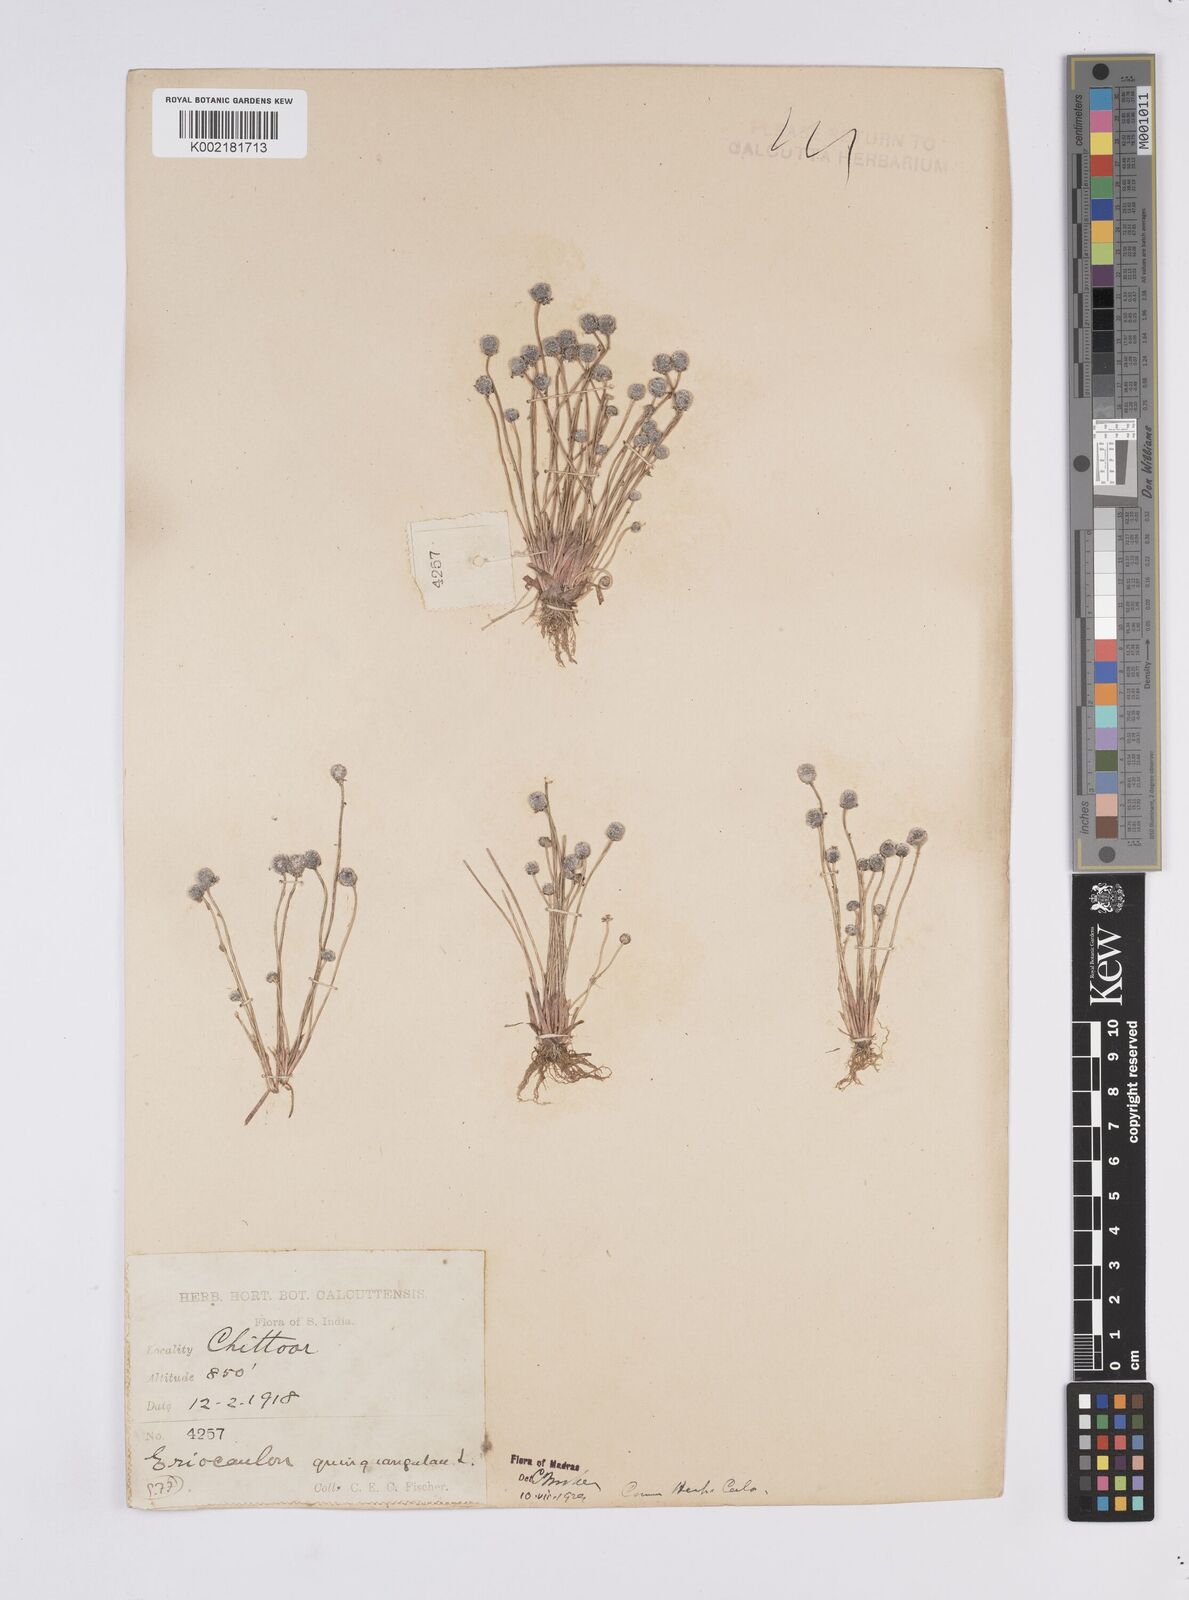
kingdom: Plantae
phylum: Tracheophyta
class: Liliopsida
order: Poales
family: Eriocaulaceae
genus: Eriocaulon
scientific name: Eriocaulon quinquangulare
